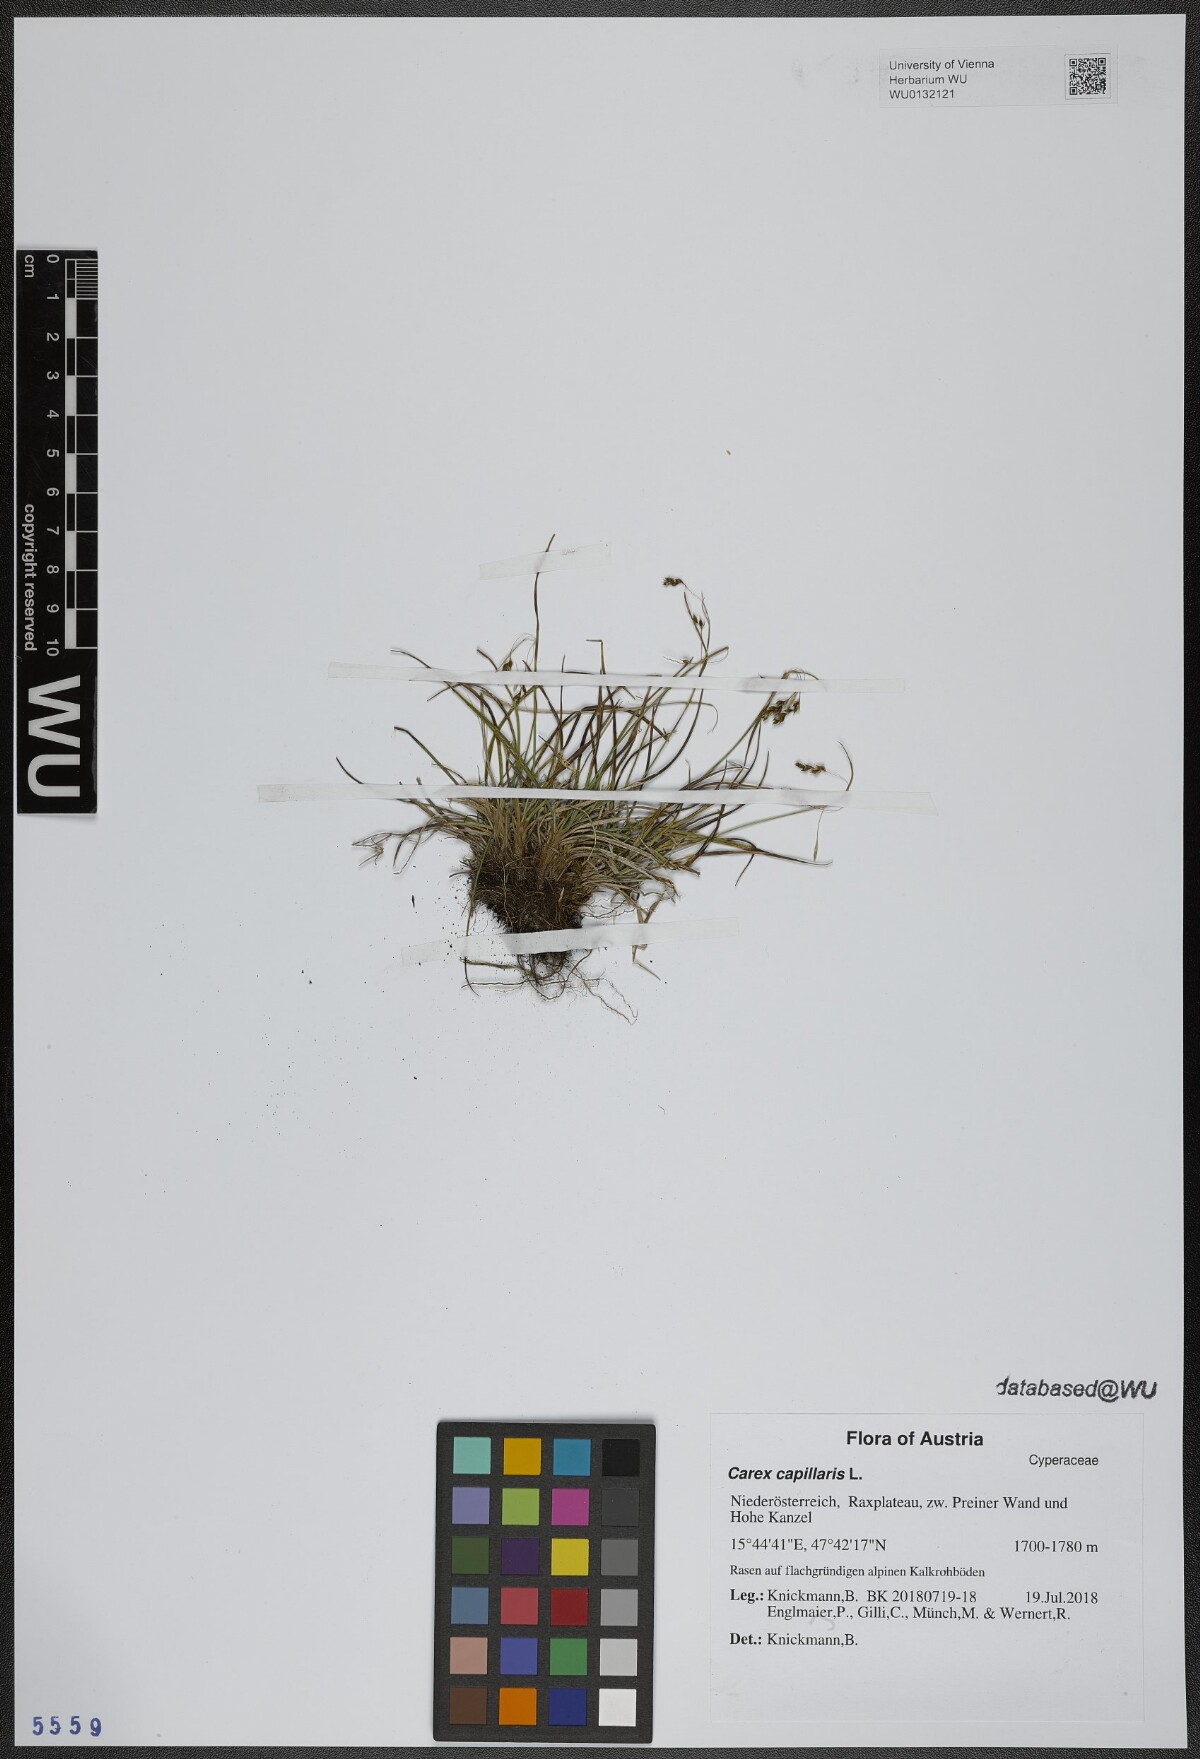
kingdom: Plantae
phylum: Tracheophyta
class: Liliopsida
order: Poales
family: Cyperaceae
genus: Carex
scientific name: Carex capillaris
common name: Hair sedge
